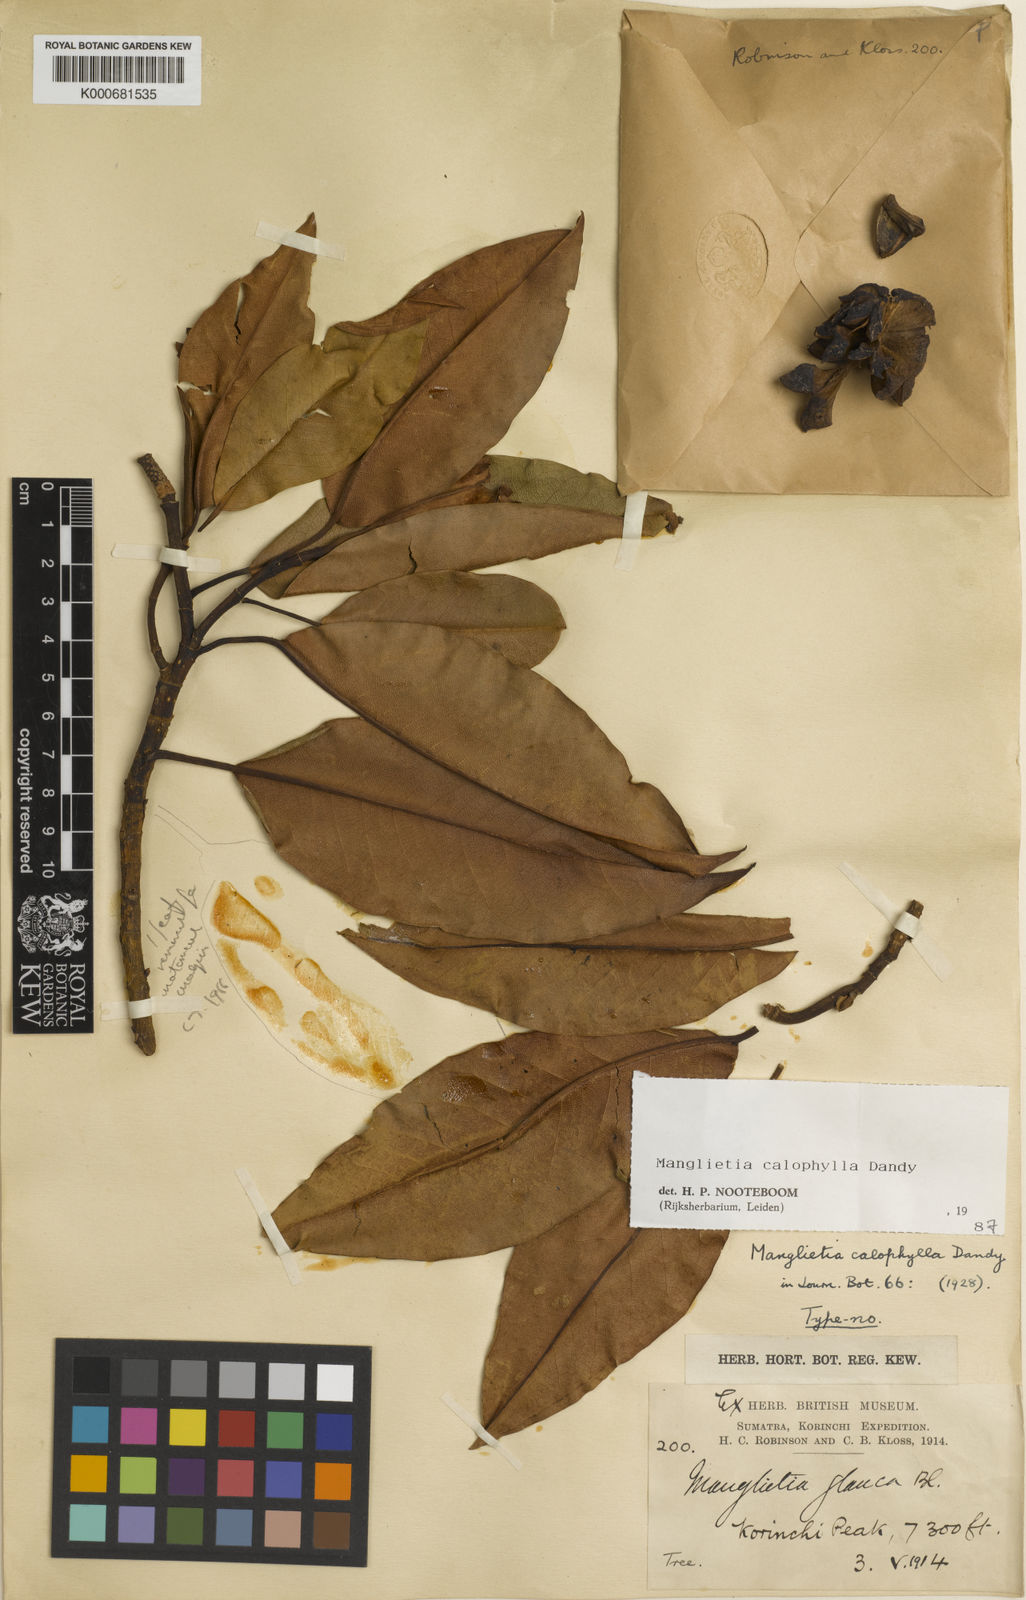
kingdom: Plantae
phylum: Tracheophyta
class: Magnoliopsida
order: Magnoliales
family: Magnoliaceae
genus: Magnolia
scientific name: Magnolia calophylloides
